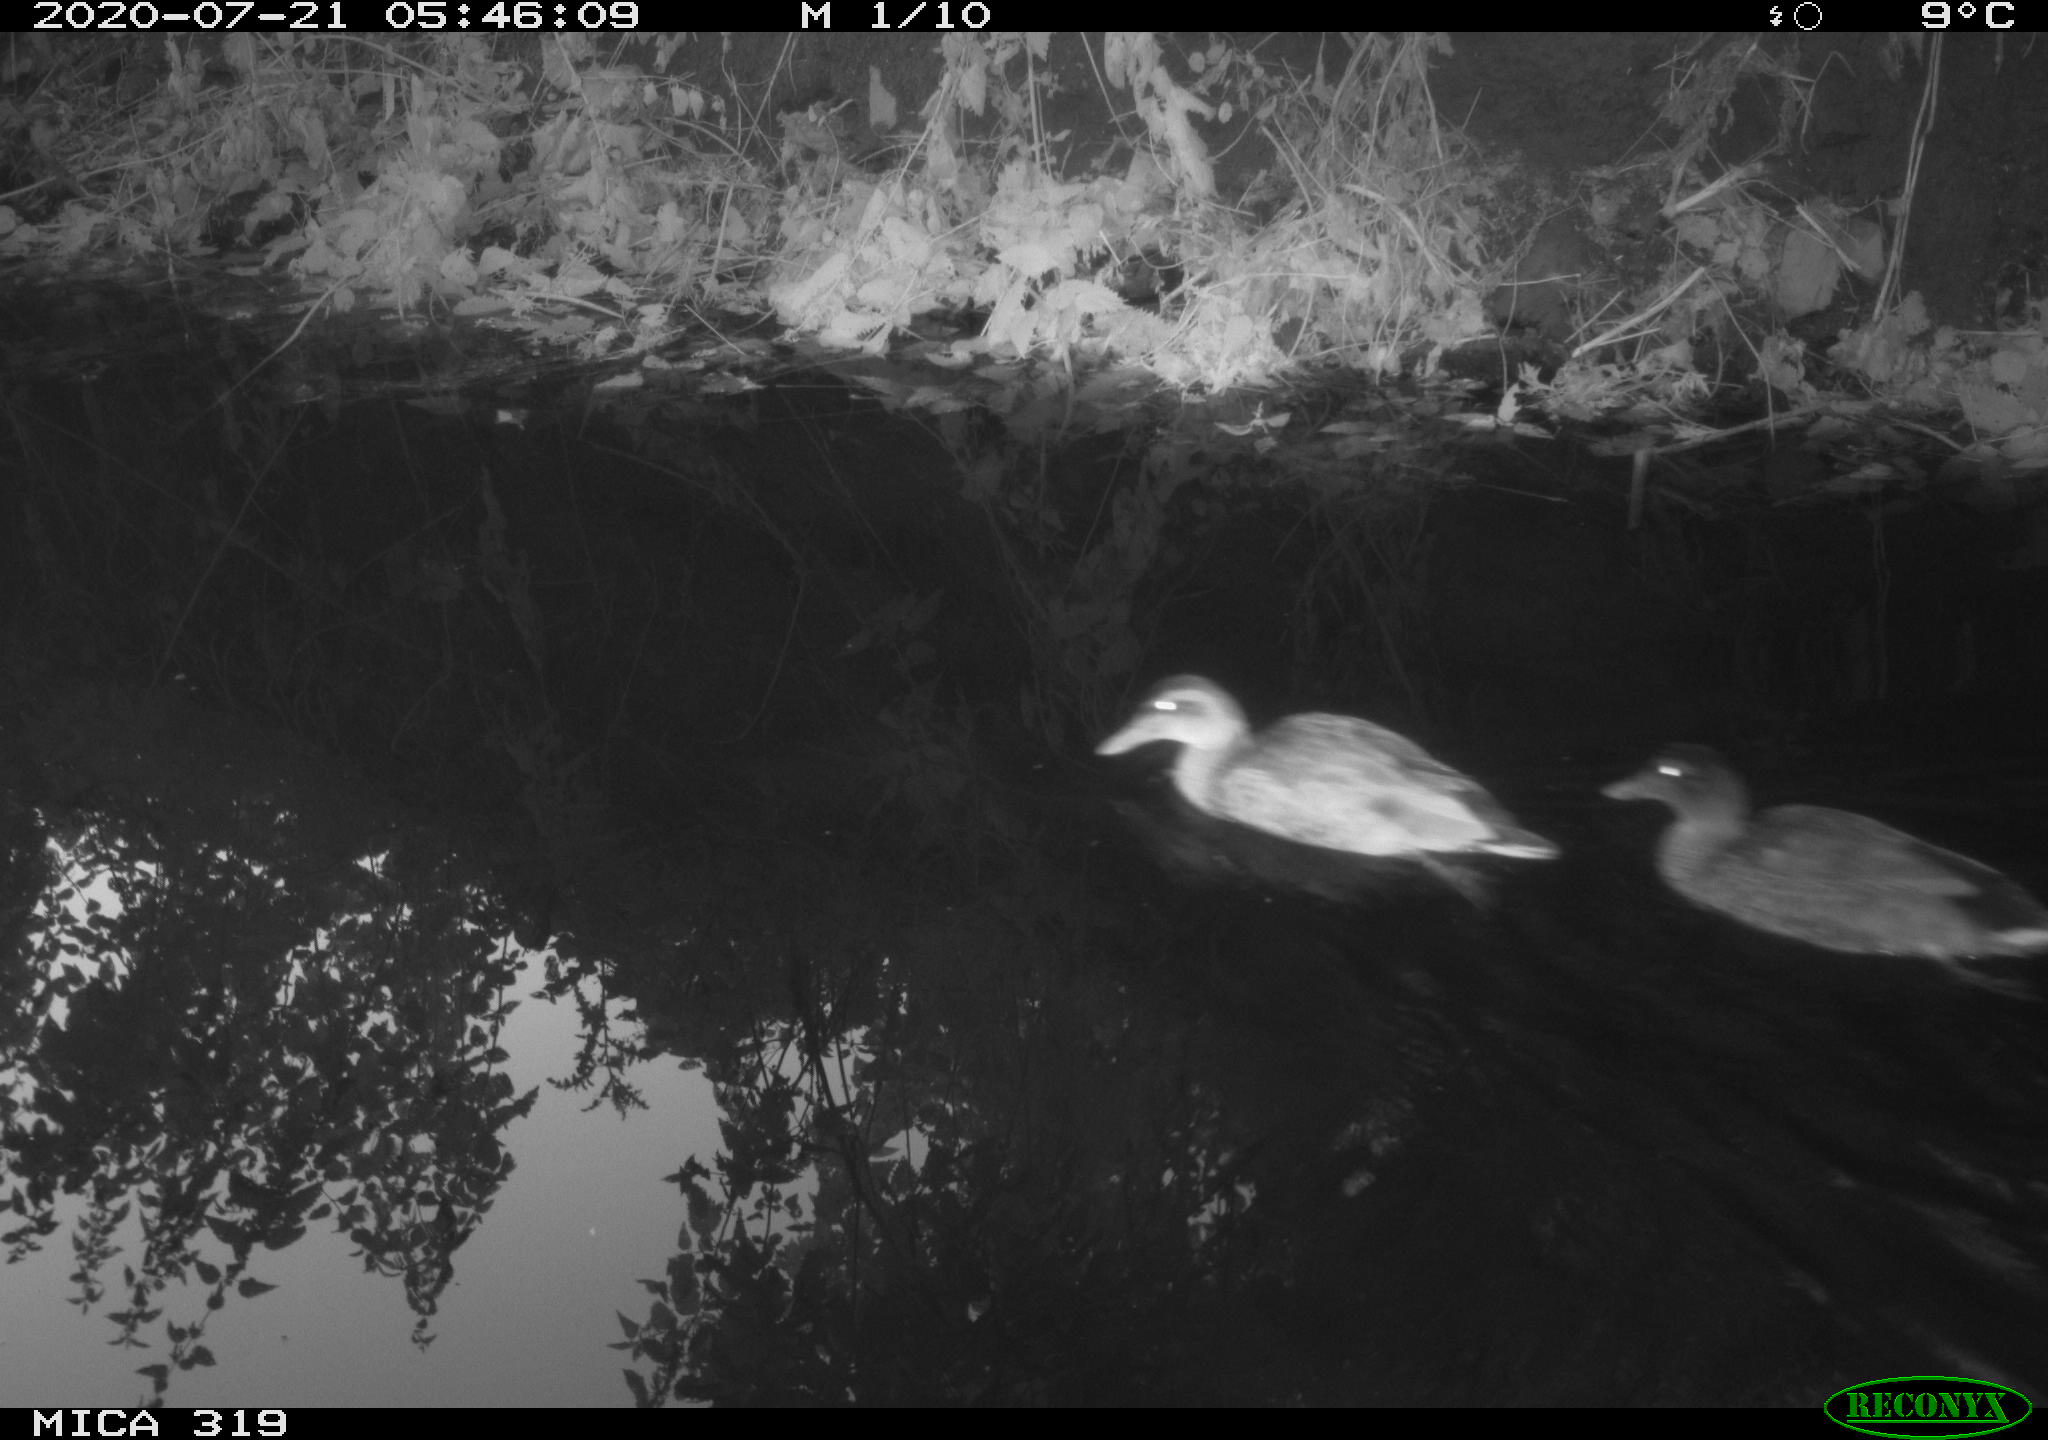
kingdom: Animalia
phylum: Chordata
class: Aves
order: Anseriformes
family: Anatidae
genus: Anas
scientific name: Anas platyrhynchos
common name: Mallard
